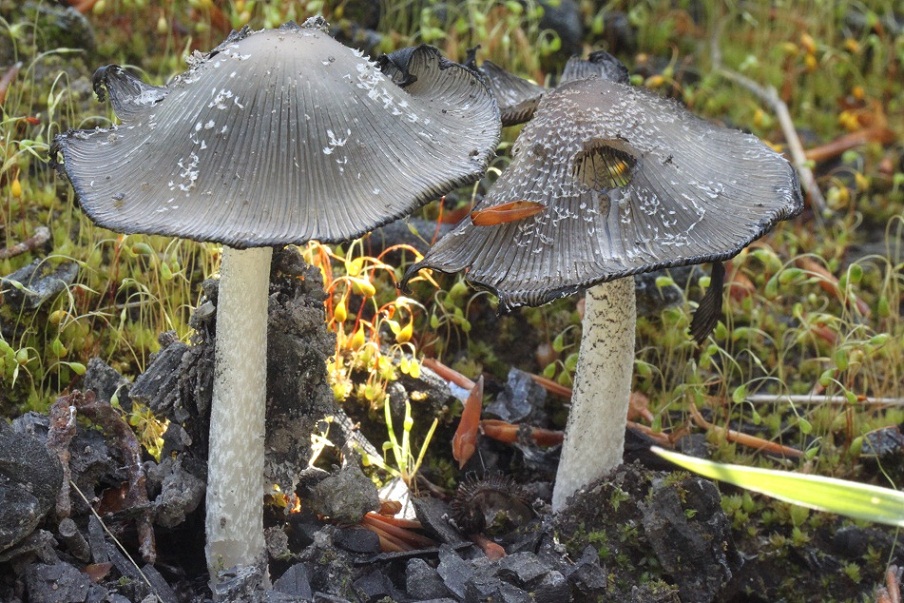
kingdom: Fungi
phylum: Basidiomycota
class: Agaricomycetes
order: Agaricales
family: Psathyrellaceae
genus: Coprinopsis
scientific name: Coprinopsis jonesii
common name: spættet blækhat
